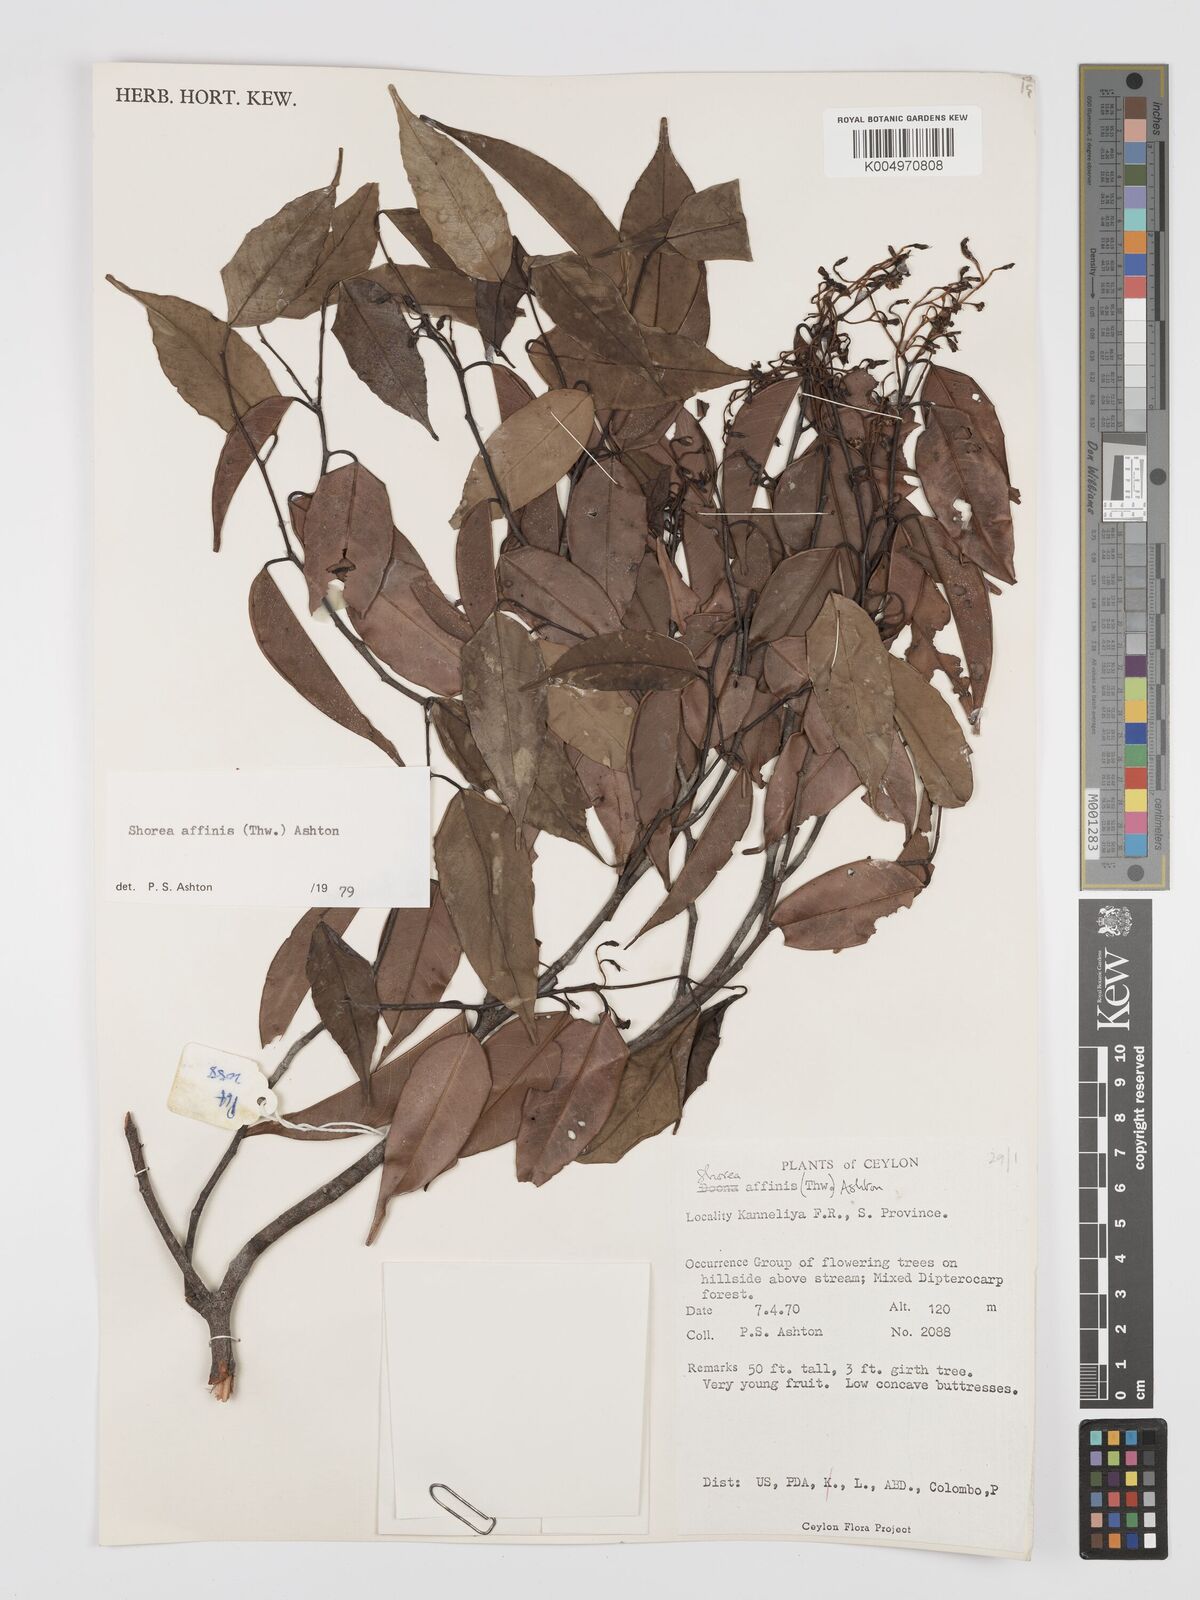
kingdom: Plantae
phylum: Tracheophyta
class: Magnoliopsida
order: Malvales
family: Dipterocarpaceae
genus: Doona
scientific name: Doona affinis
